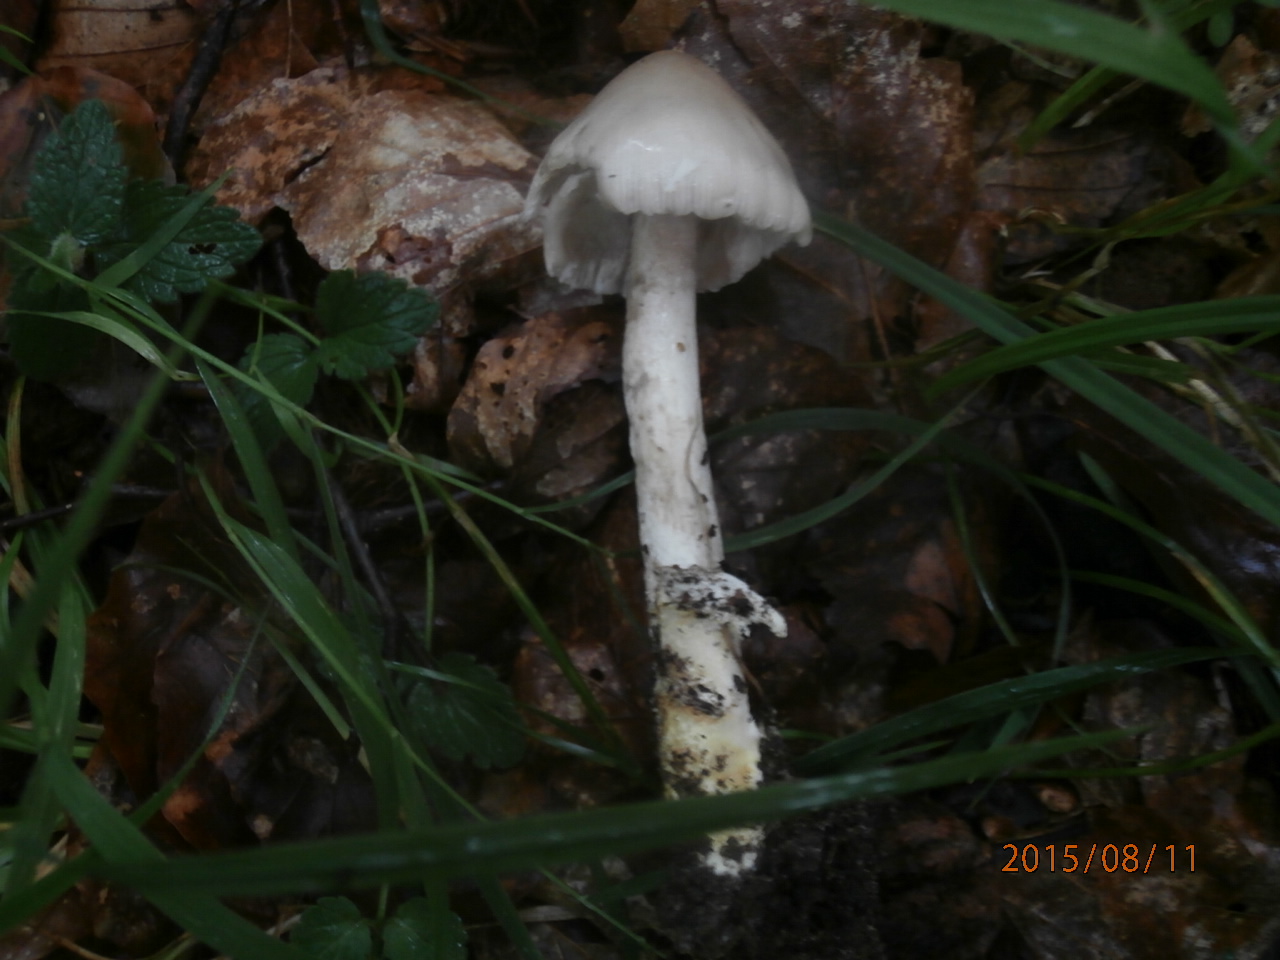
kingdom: Fungi
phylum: Basidiomycota
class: Agaricomycetes
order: Agaricales
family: Amanitaceae
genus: Amanita
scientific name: Amanita vaginata
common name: grå kam-fluesvamp
